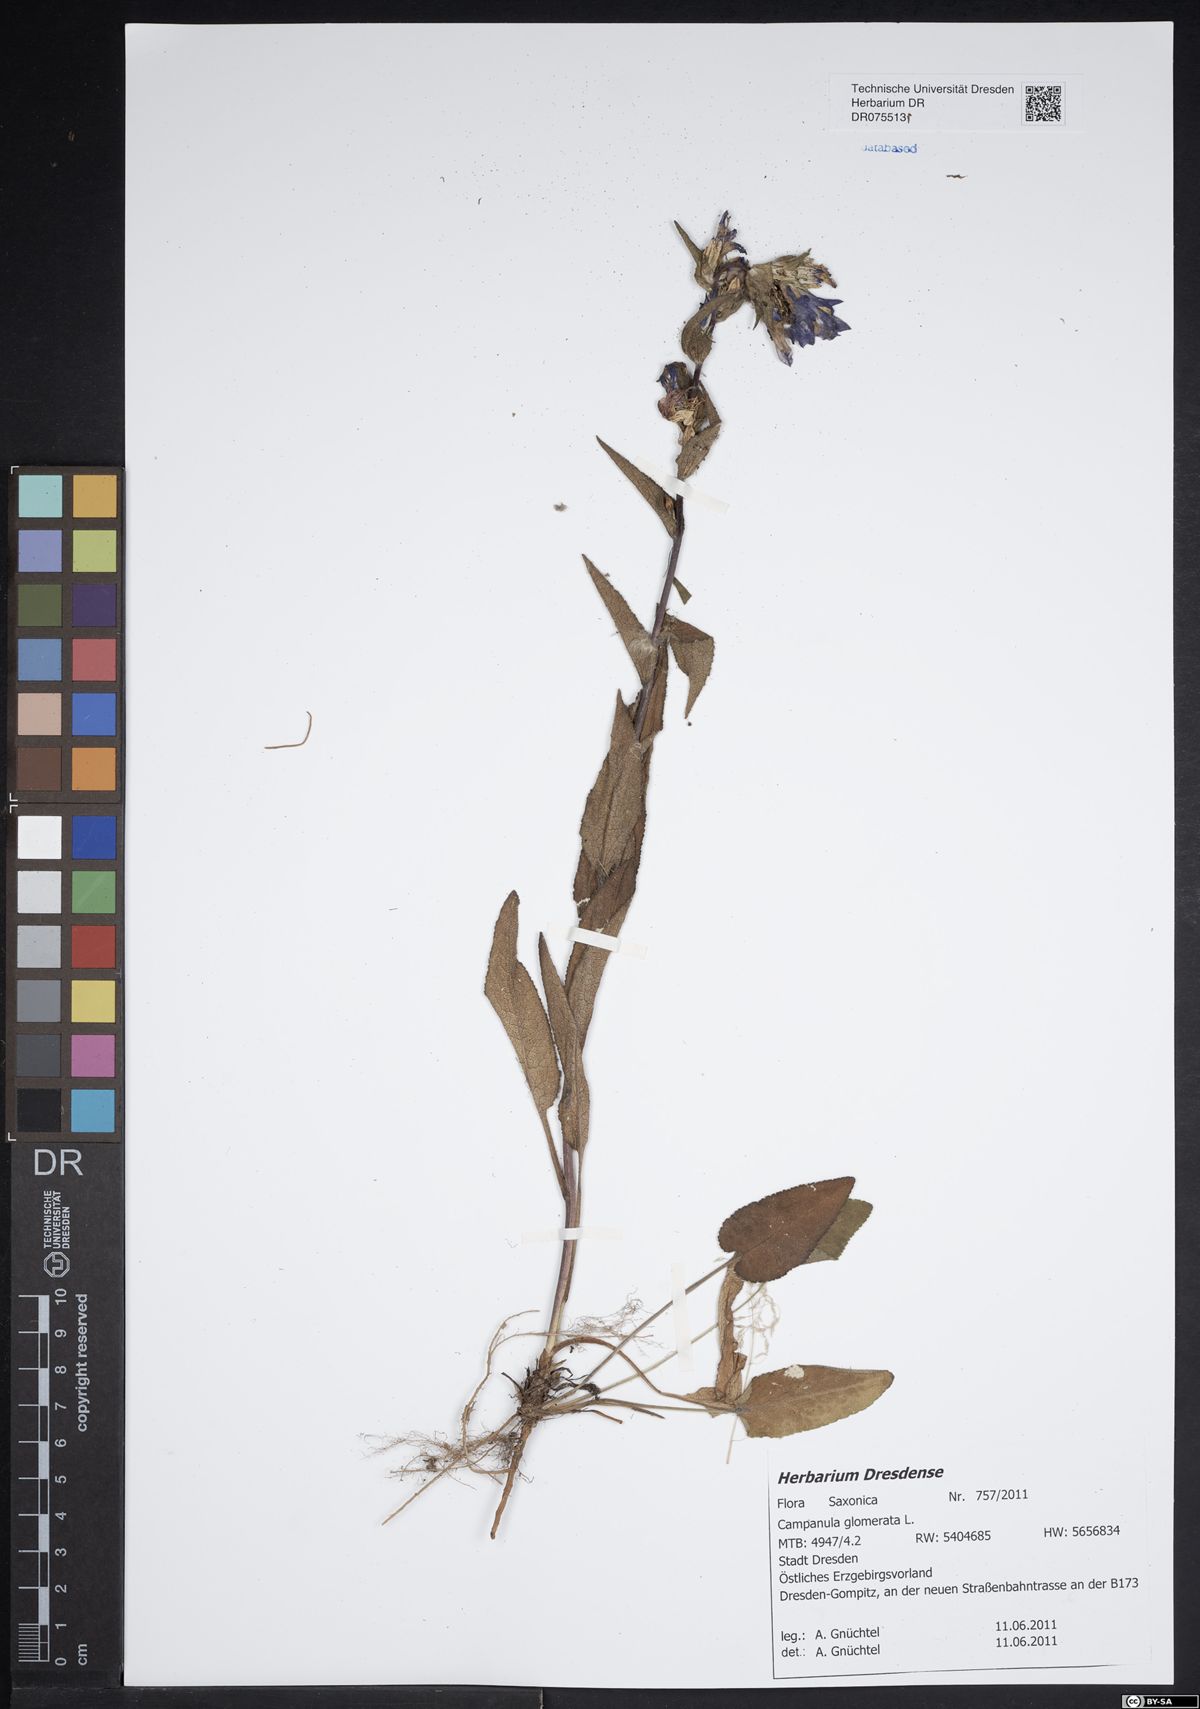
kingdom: Plantae
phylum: Tracheophyta
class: Magnoliopsida
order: Asterales
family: Campanulaceae
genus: Campanula
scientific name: Campanula glomerata
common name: Clustered bellflower
